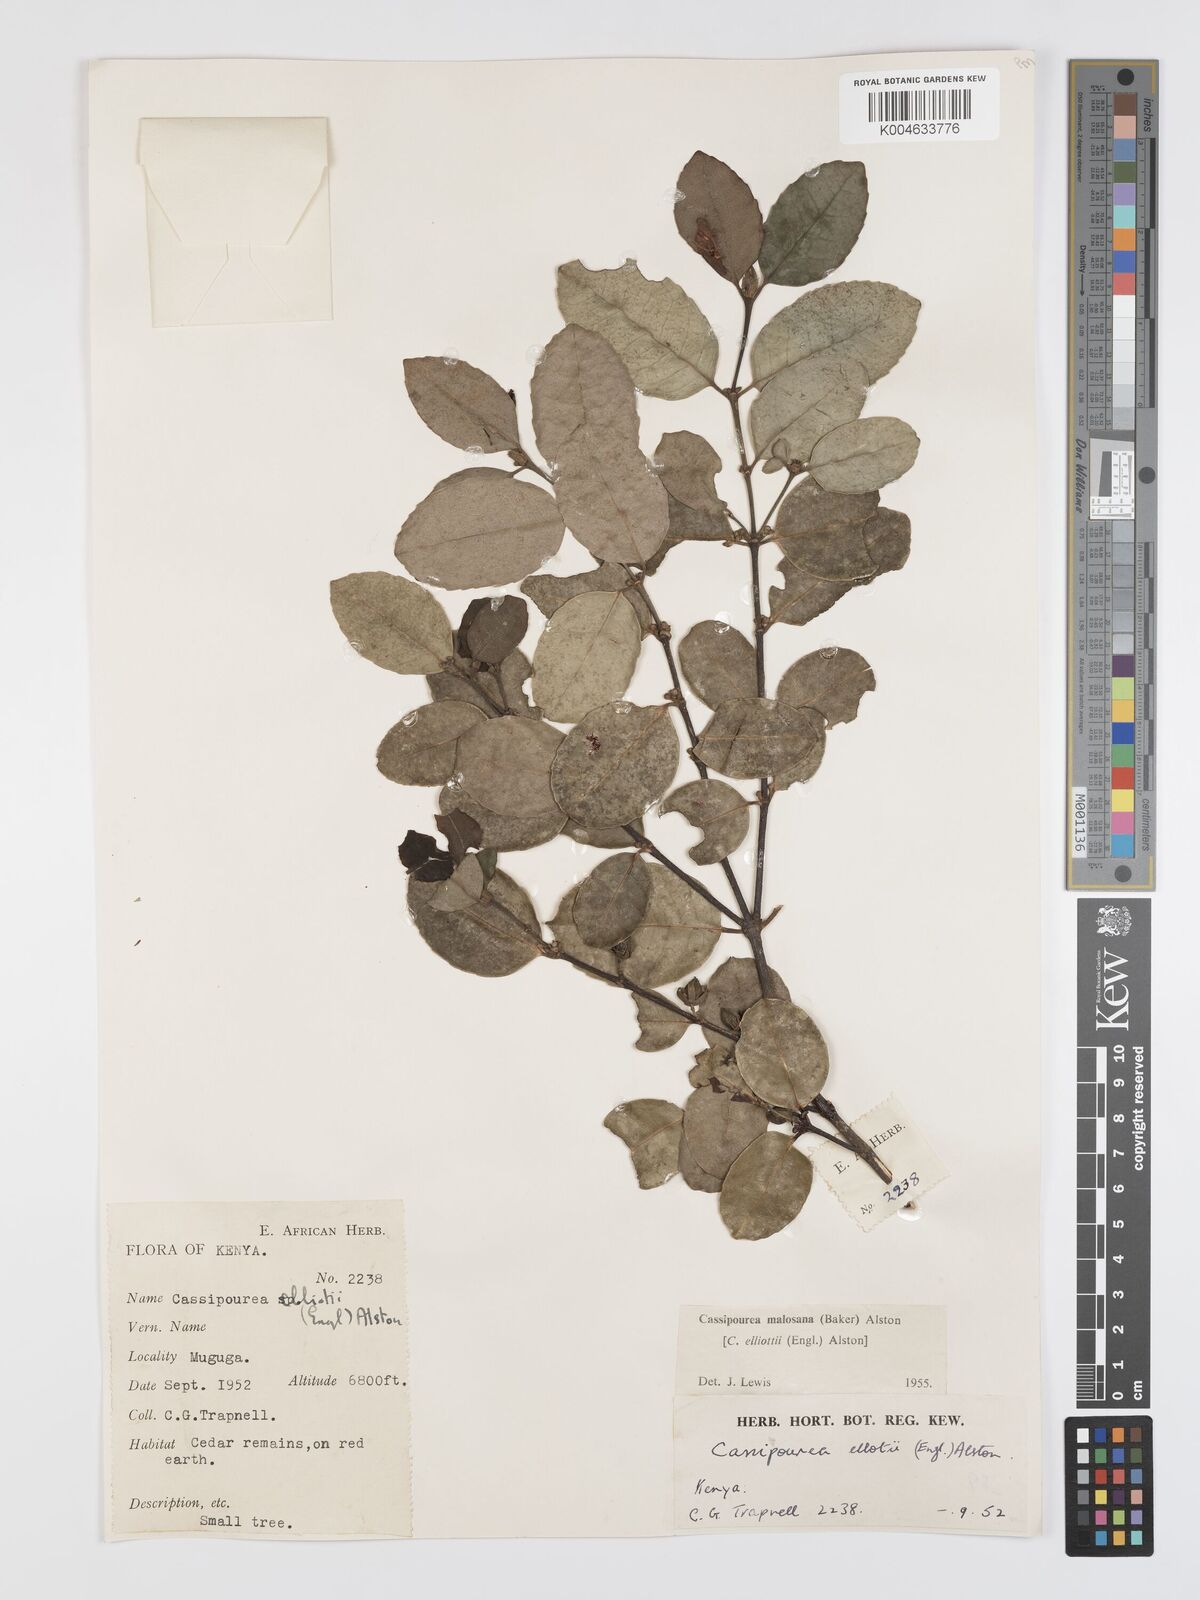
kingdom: Plantae
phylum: Tracheophyta
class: Magnoliopsida
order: Malpighiales
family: Rhizophoraceae
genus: Cassipourea
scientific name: Cassipourea malosana
